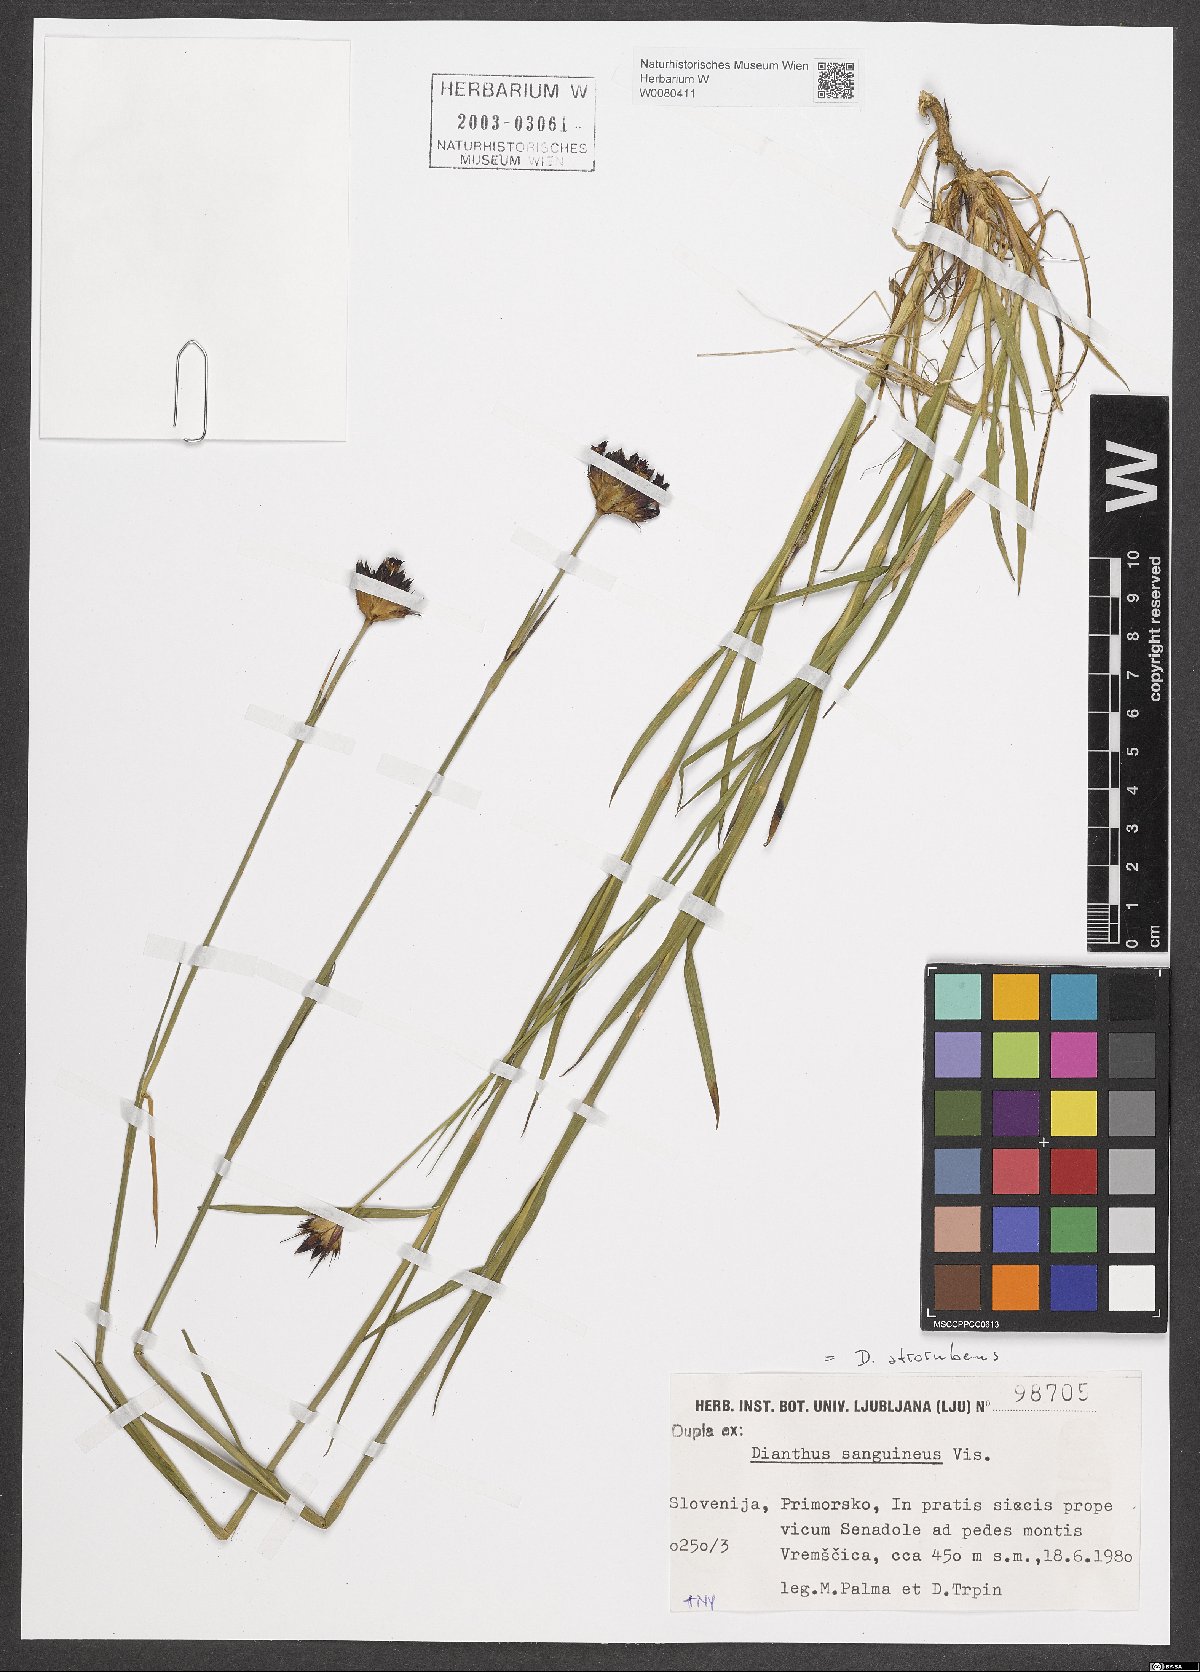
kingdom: Plantae
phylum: Tracheophyta
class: Magnoliopsida
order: Caryophyllales
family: Caryophyllaceae
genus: Dianthus
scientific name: Dianthus carthusianorum
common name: Carthusian pink
